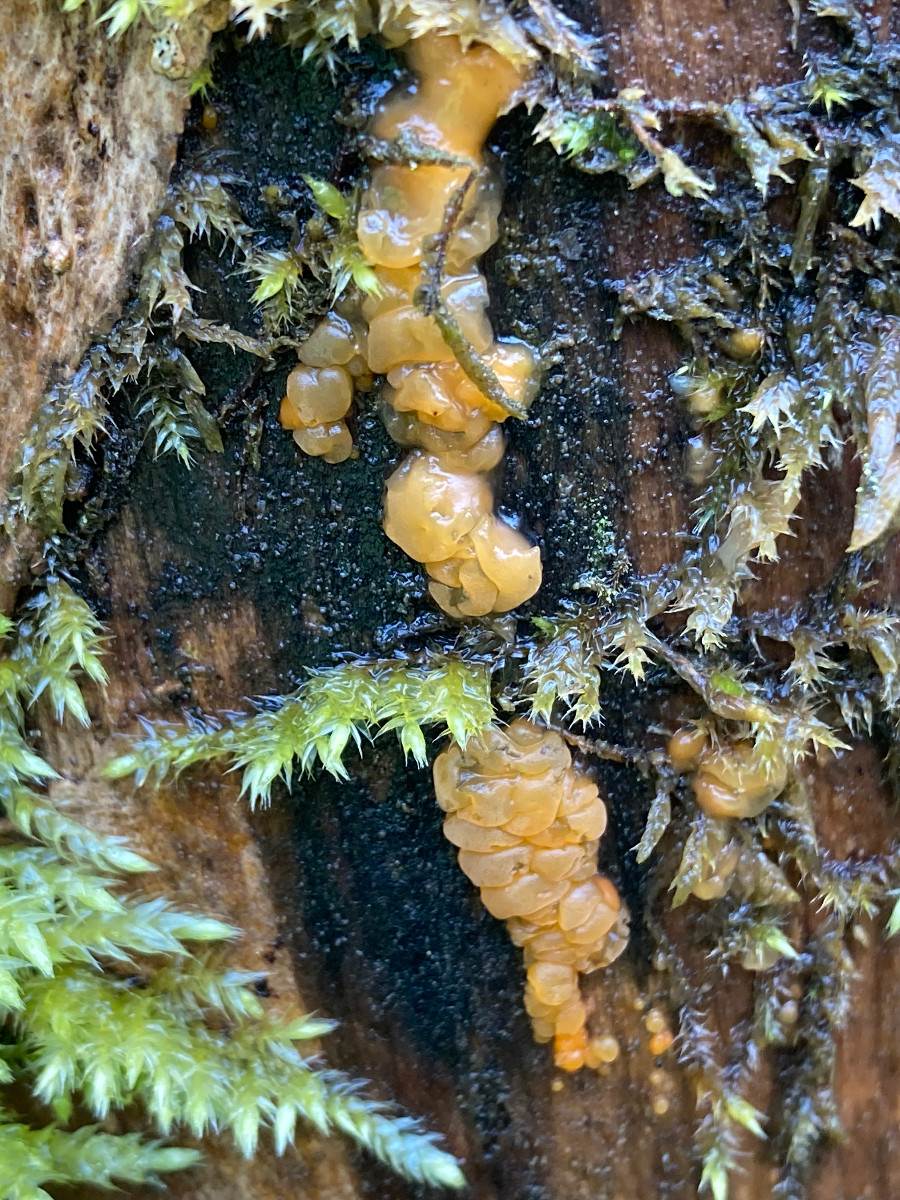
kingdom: Fungi
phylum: Basidiomycota
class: Dacrymycetes
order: Dacrymycetales
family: Dacrymycetaceae
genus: Dacrymyces
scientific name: Dacrymyces lacrymalis
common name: rynket tåresvamp
